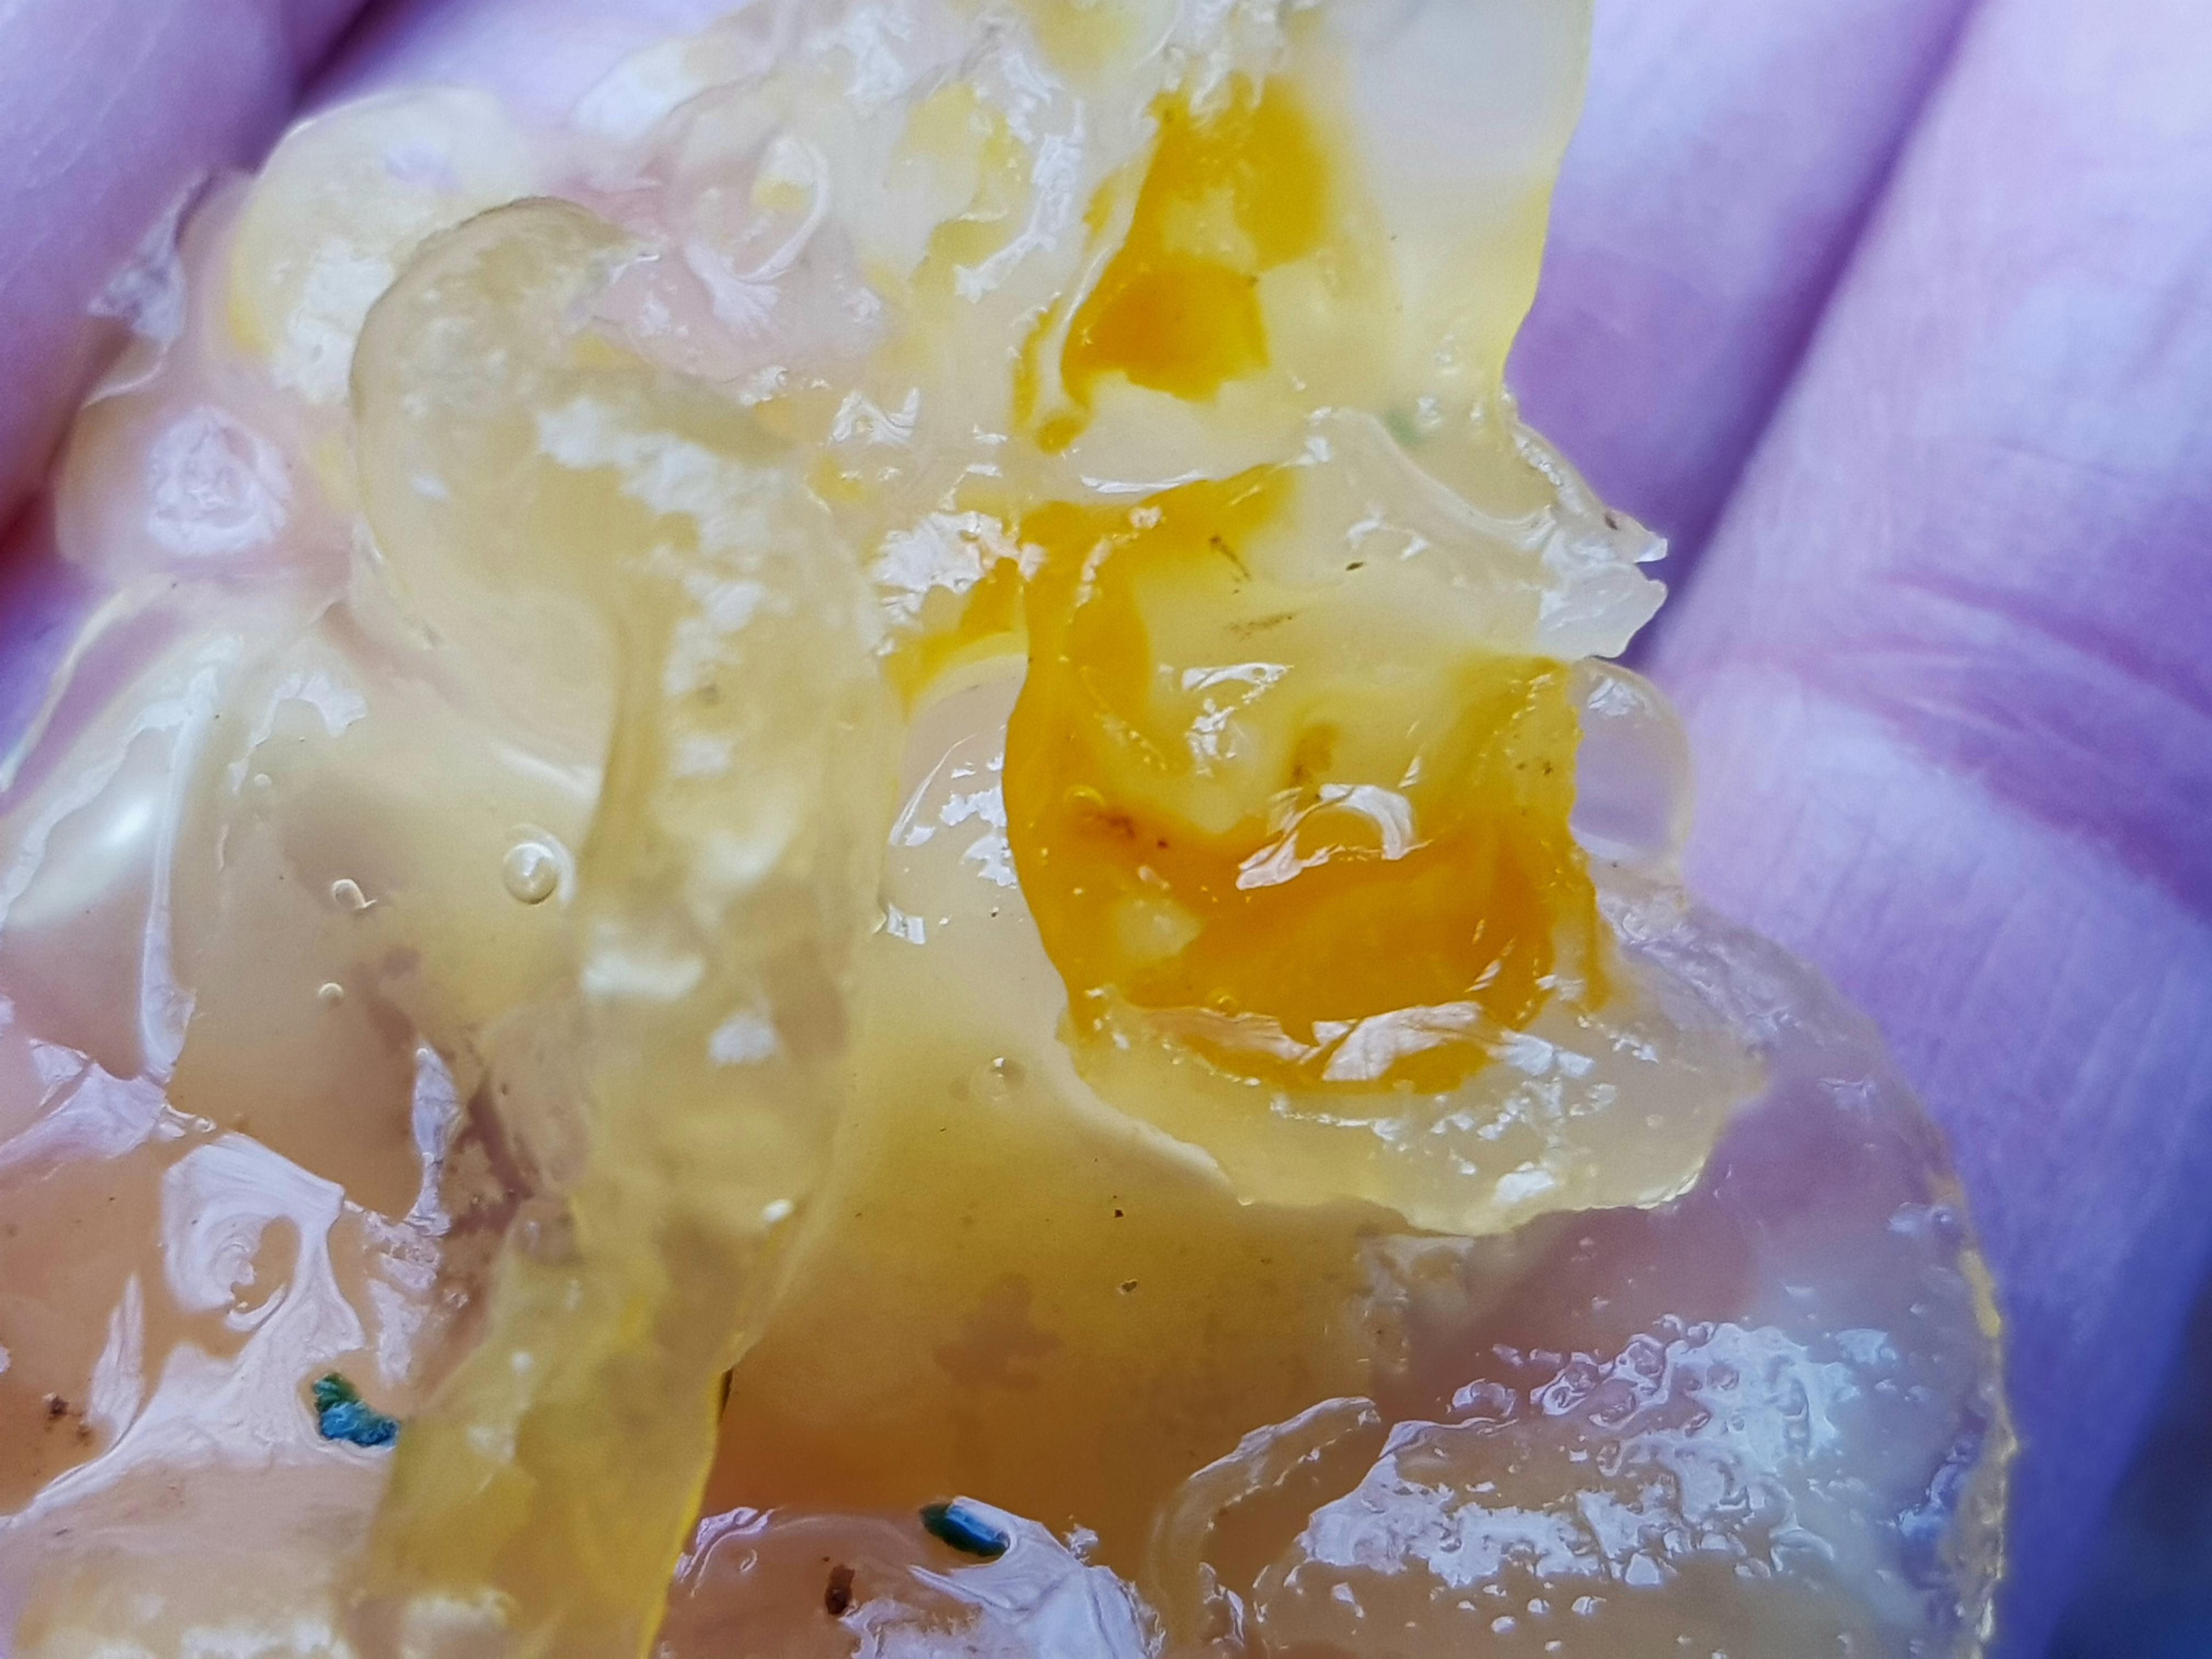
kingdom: Fungi
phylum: Basidiomycota
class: Tremellomycetes
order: Tremellales
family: Tremellaceae
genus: Tremella
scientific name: Tremella mesenterica
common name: gul bævresvamp
